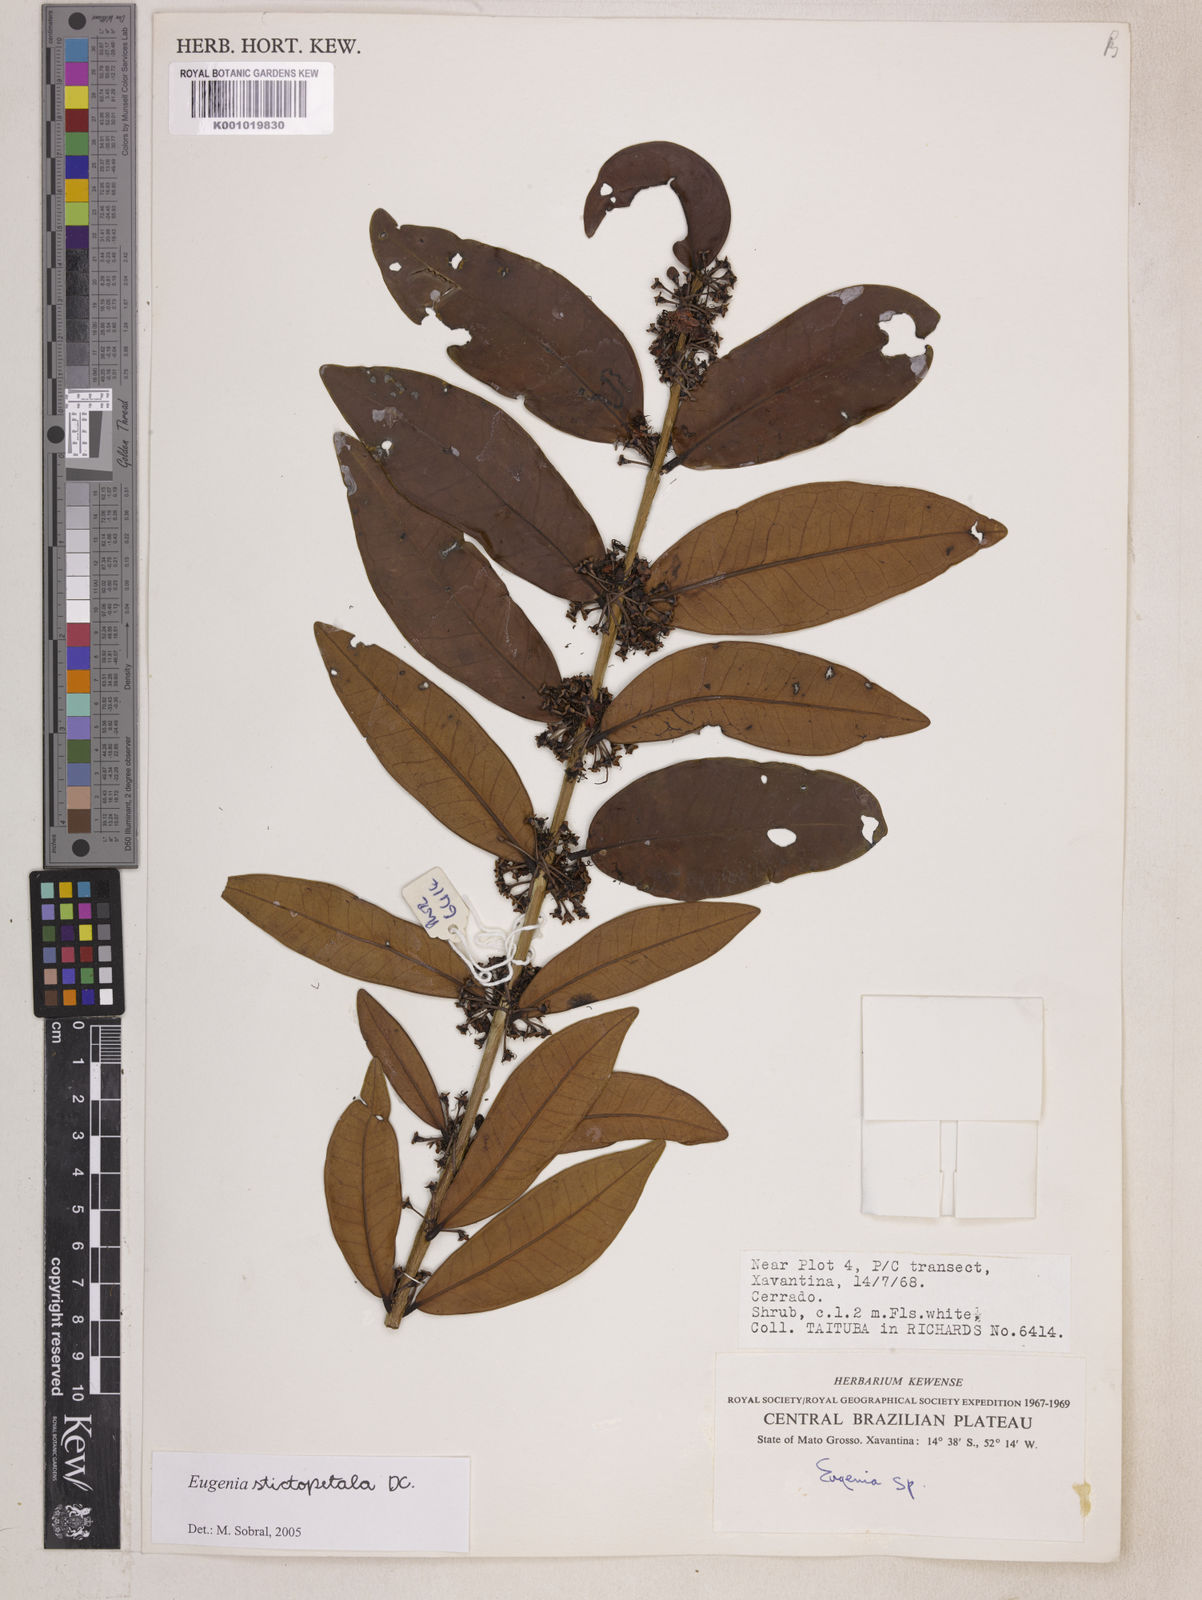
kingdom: Plantae
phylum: Tracheophyta
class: Magnoliopsida
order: Myrtales
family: Myrtaceae
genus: Eugenia
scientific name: Eugenia stictopetala
